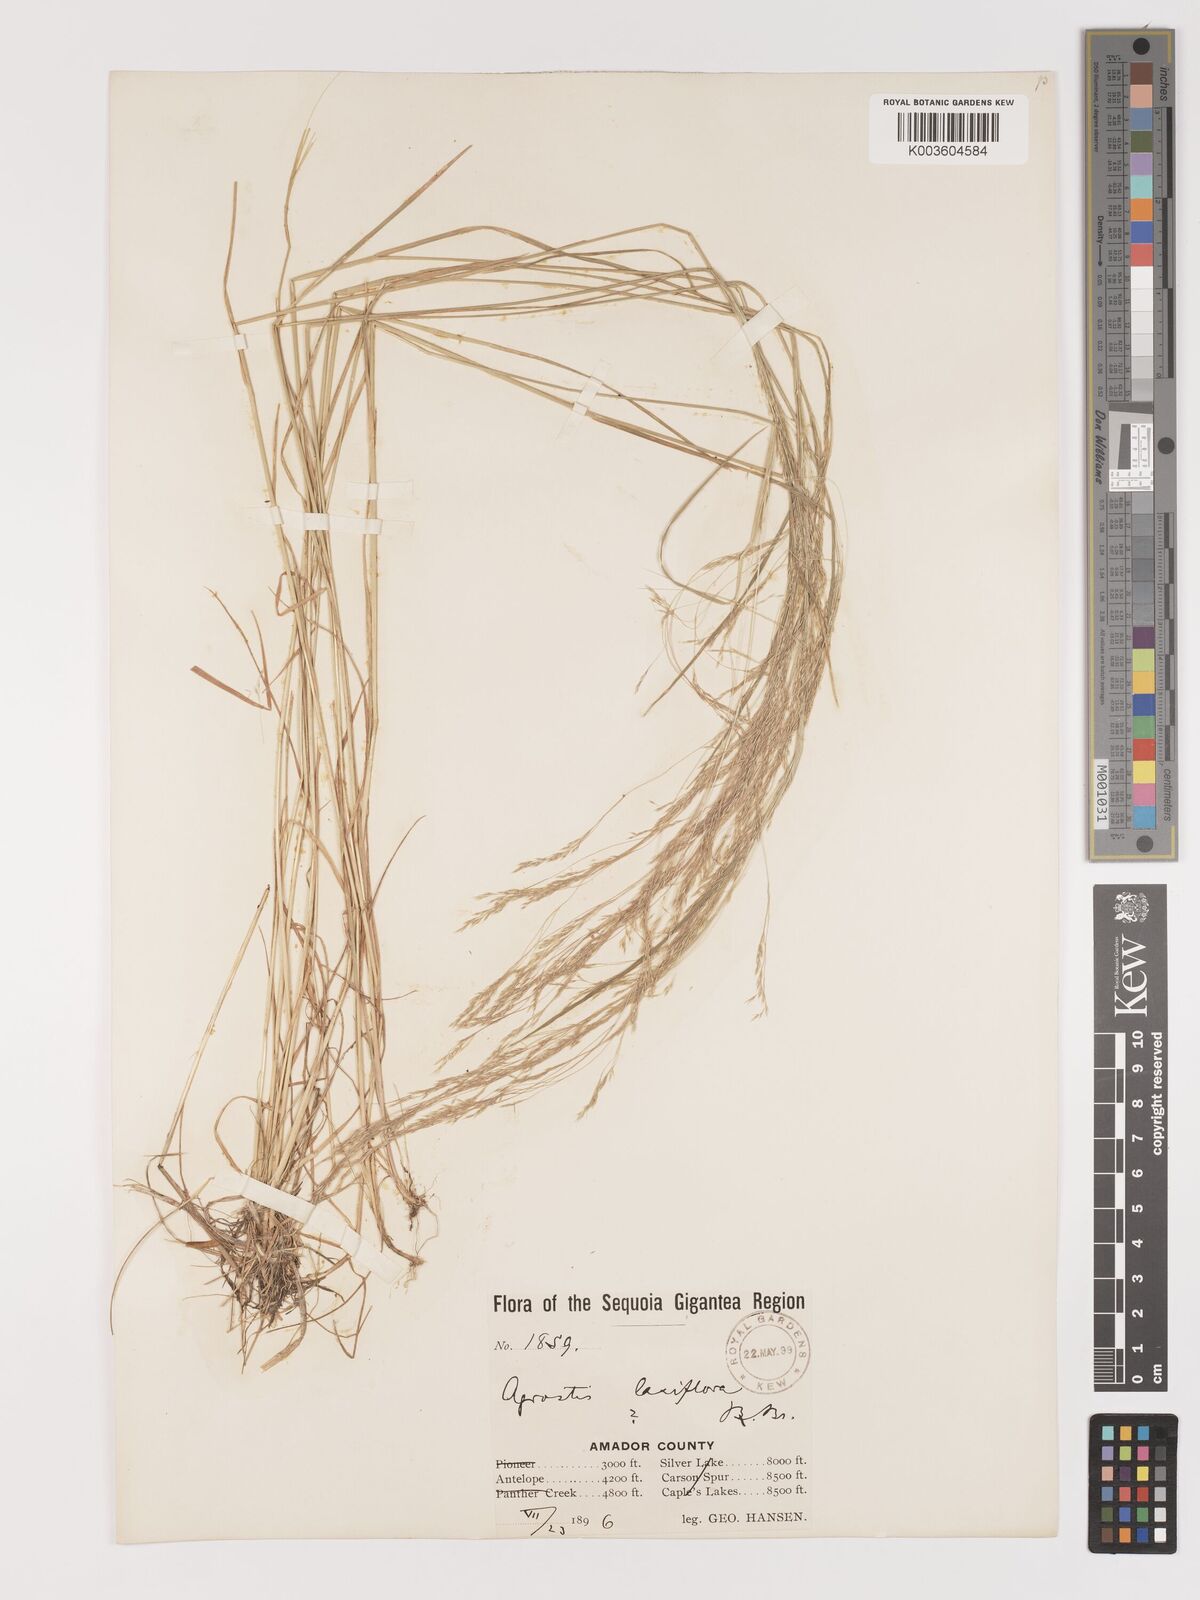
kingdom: Plantae
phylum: Tracheophyta
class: Liliopsida
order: Poales
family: Poaceae
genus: Agrostis
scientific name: Agrostis hyemalis
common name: Small bent
